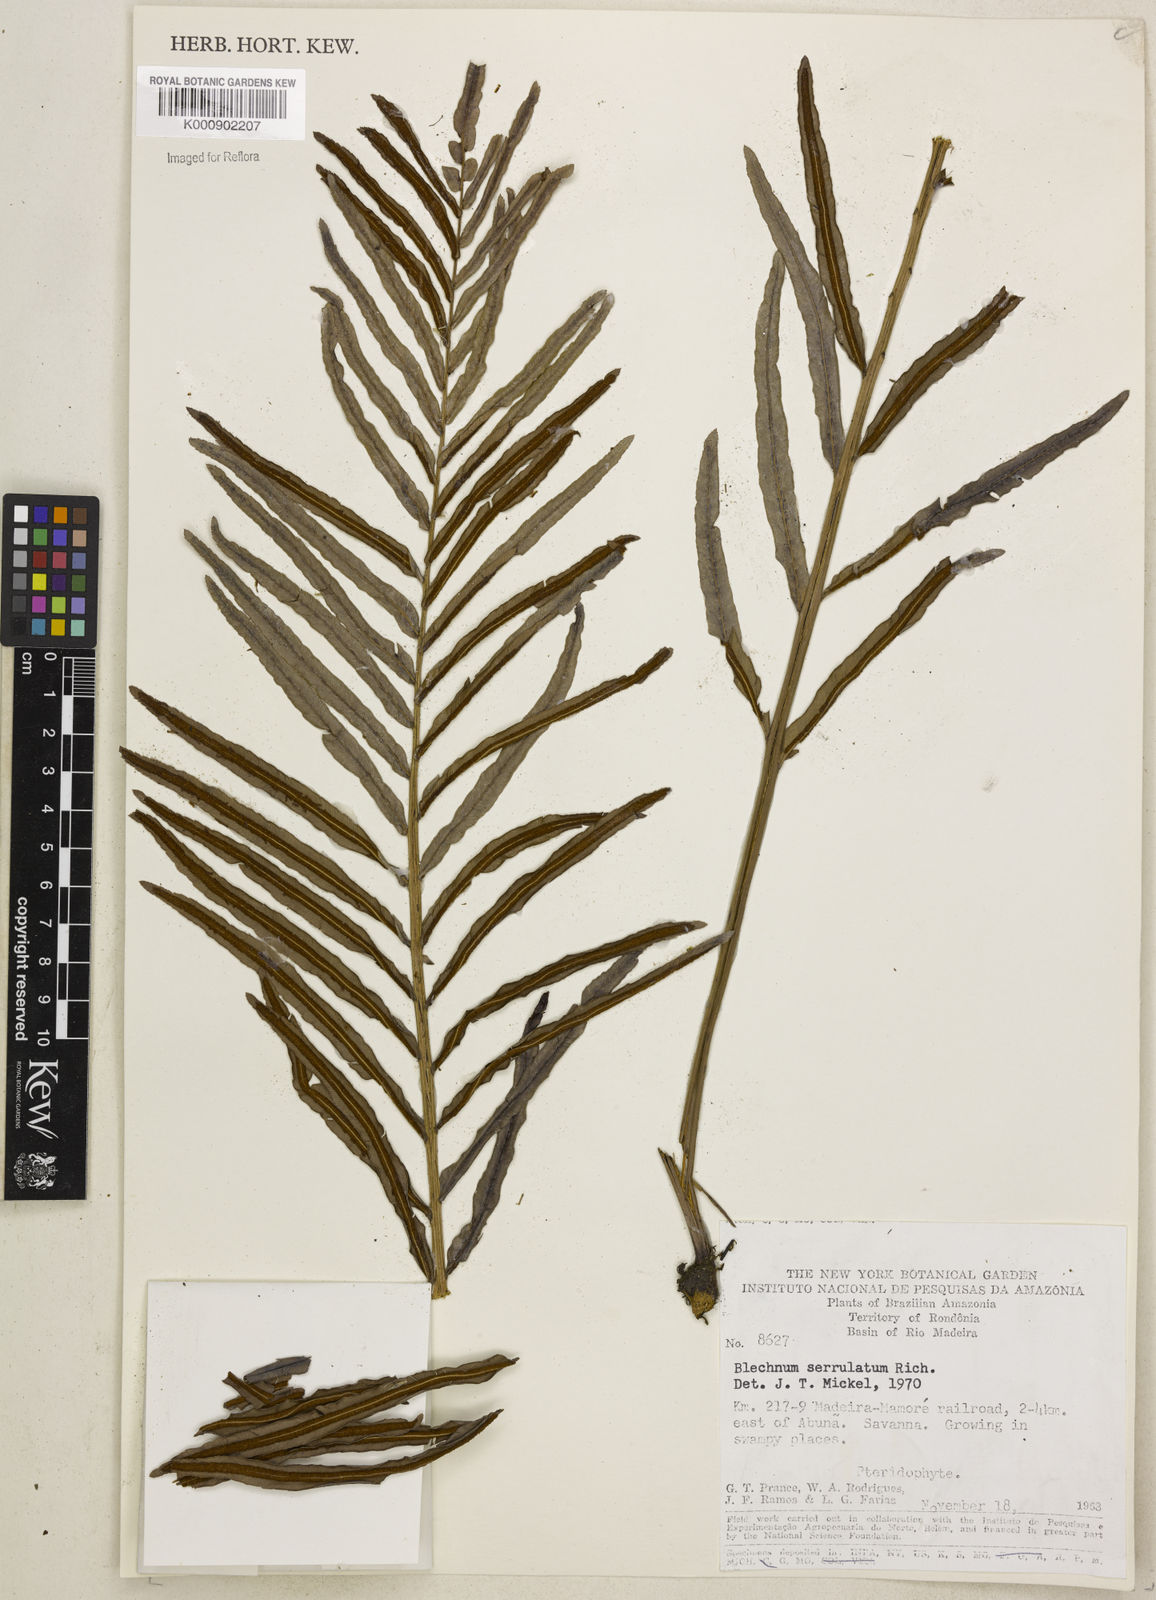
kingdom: Plantae
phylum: Tracheophyta
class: Polypodiopsida
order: Polypodiales
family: Blechnaceae
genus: Telmatoblechnum
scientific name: Telmatoblechnum serrulatum
